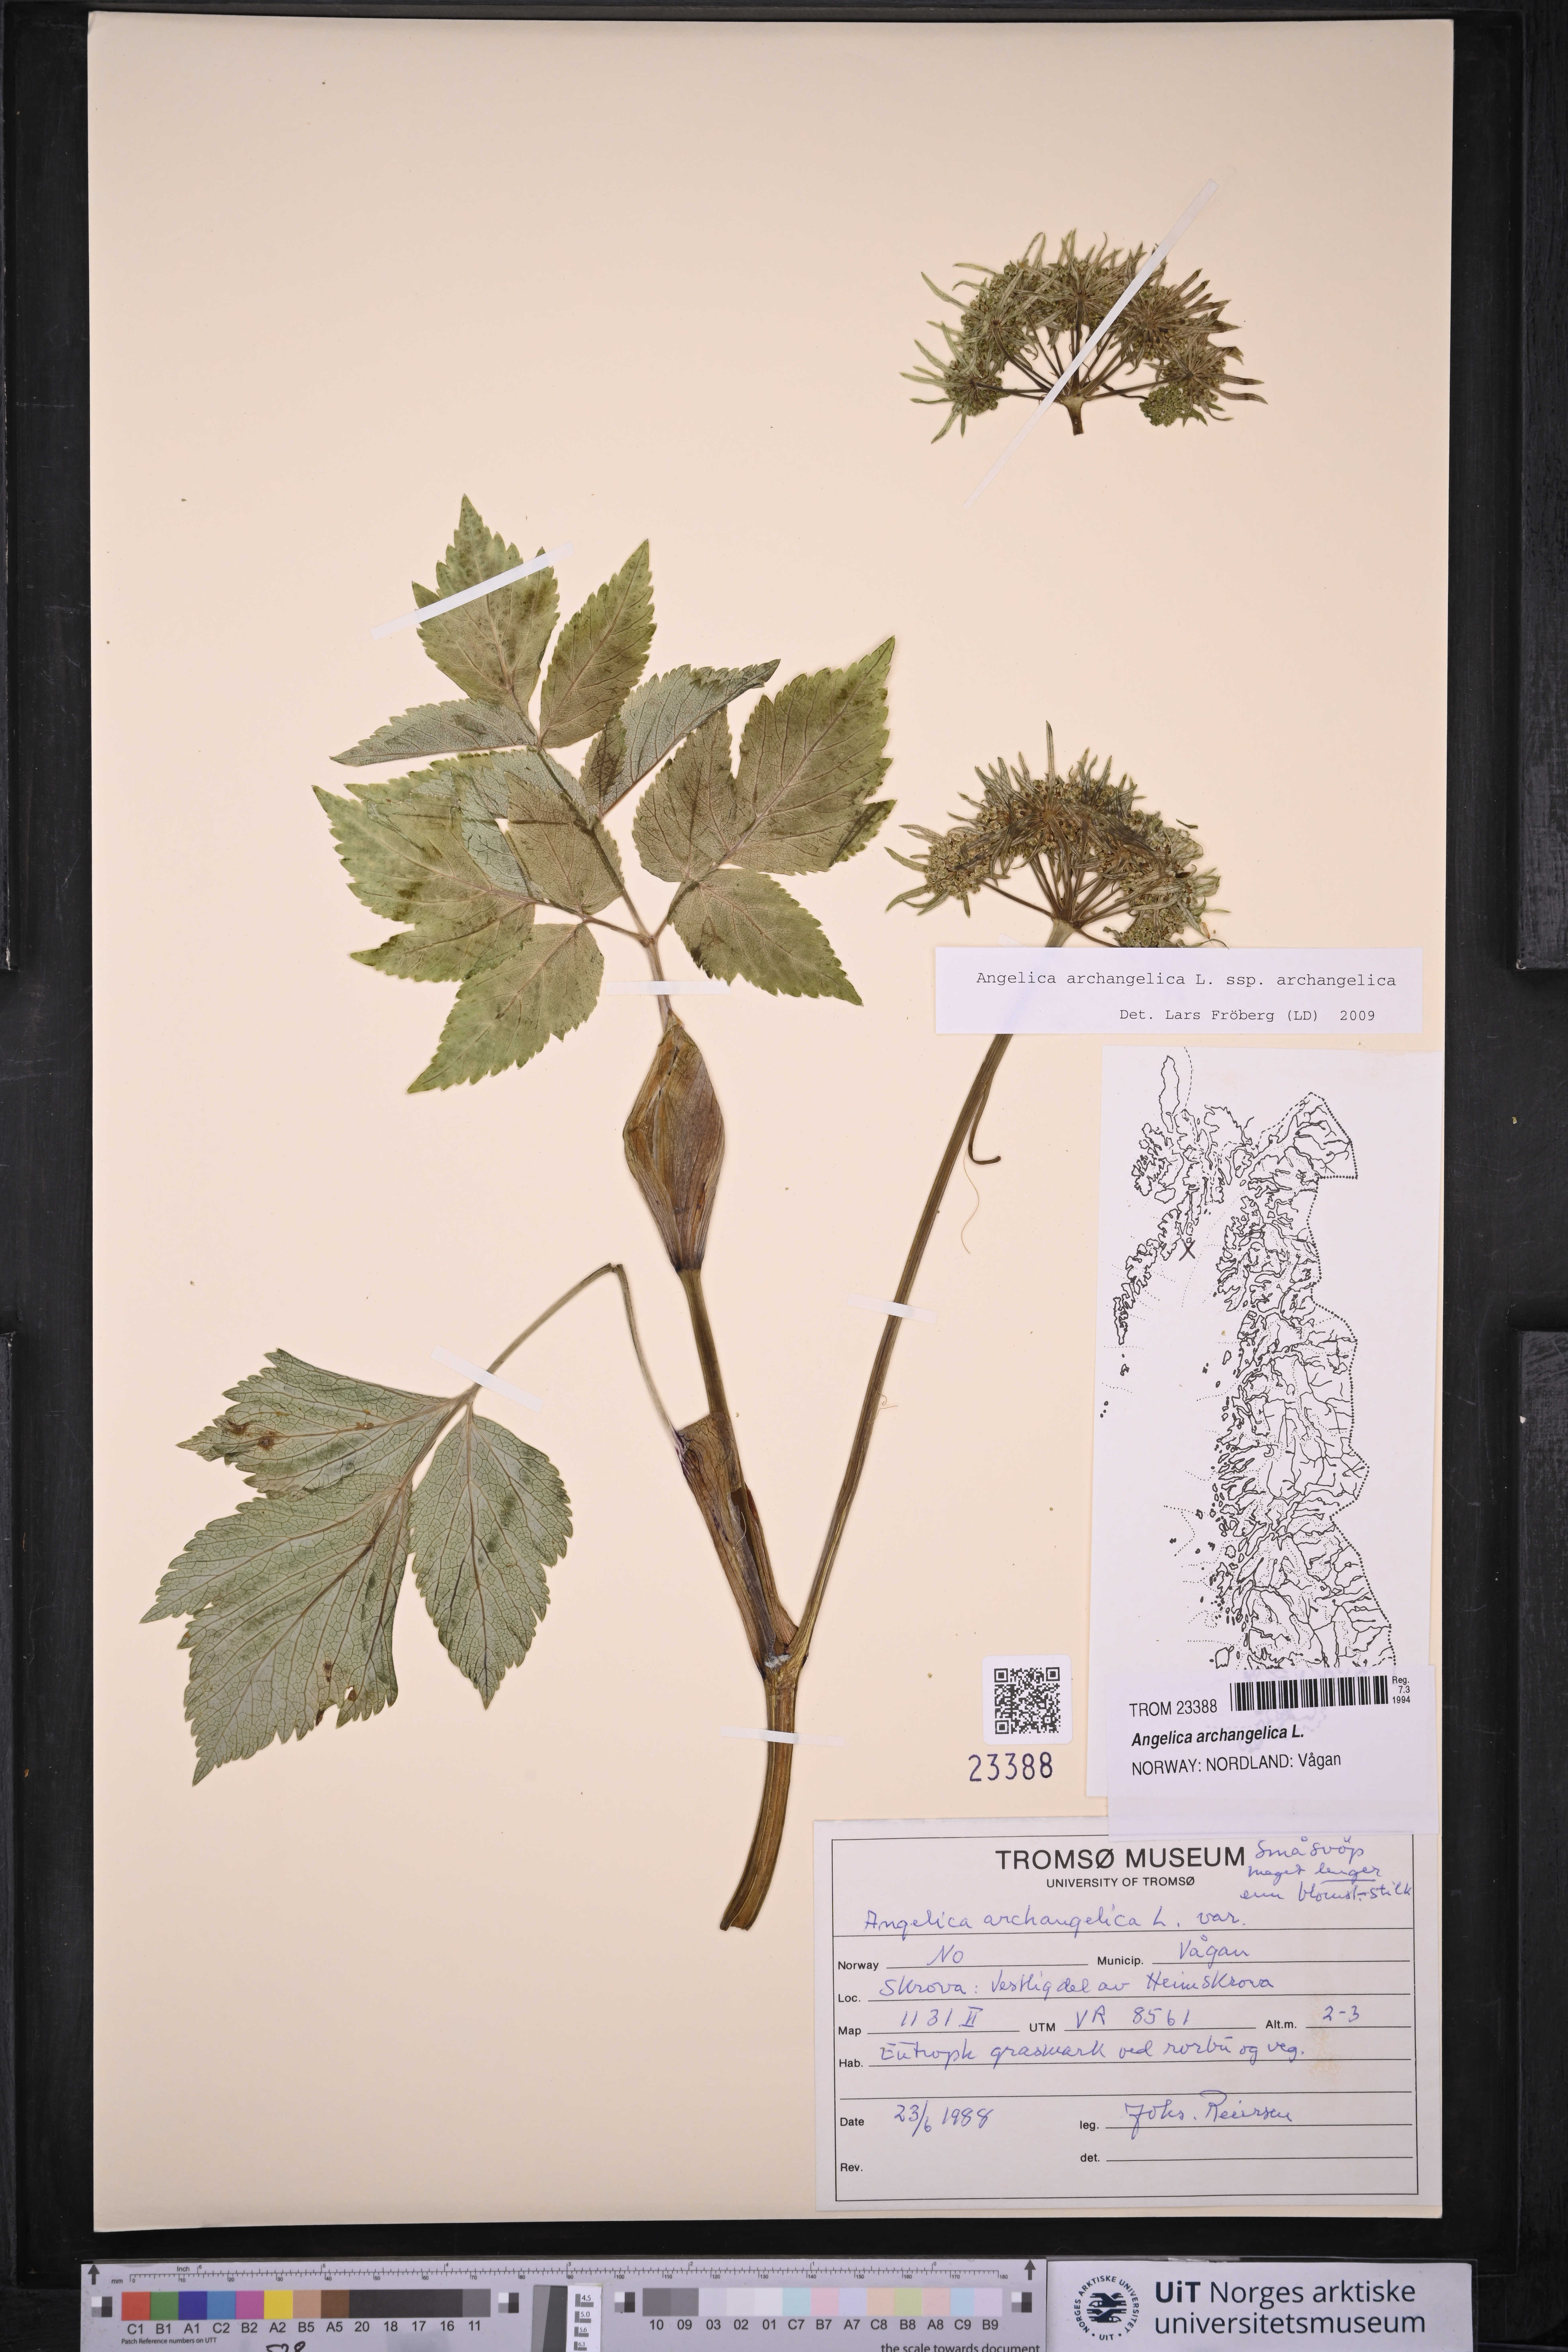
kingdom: Plantae
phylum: Tracheophyta
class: Magnoliopsida
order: Apiales
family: Apiaceae
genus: Angelica
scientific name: Angelica archangelica
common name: Garden angelica
